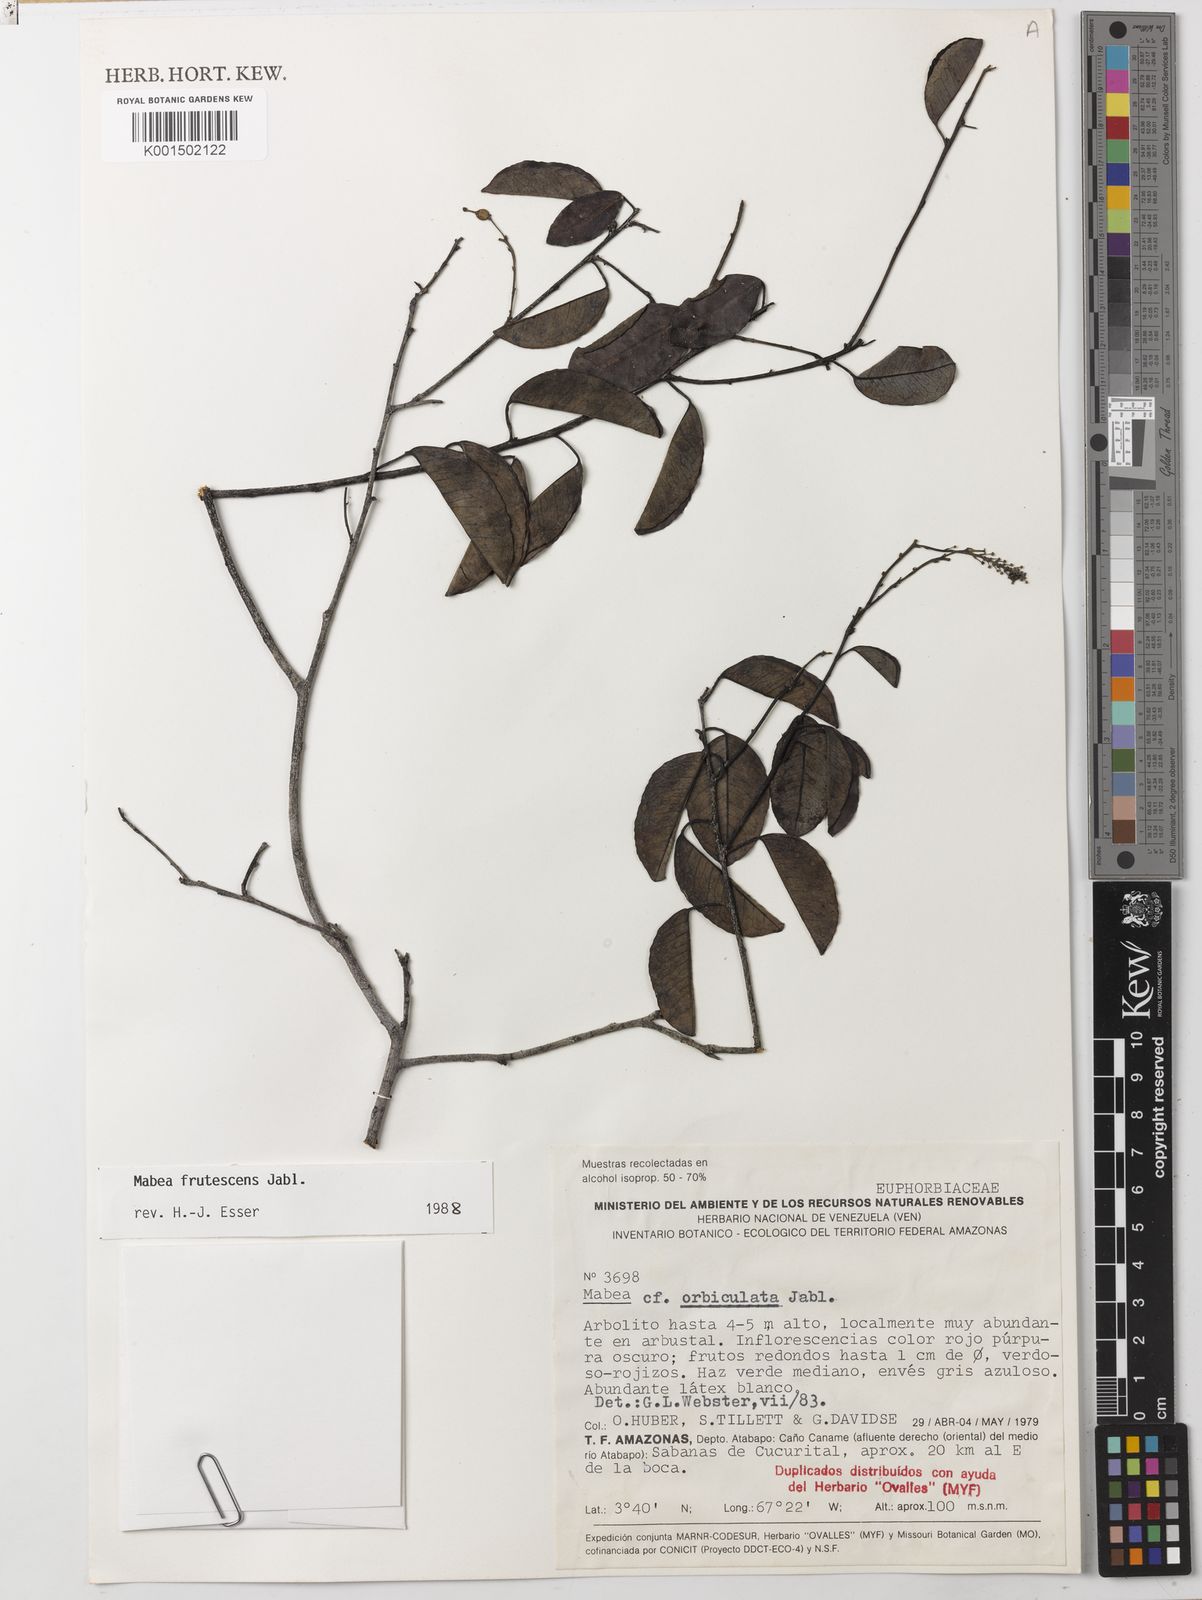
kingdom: Plantae
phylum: Tracheophyta
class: Magnoliopsida
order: Malpighiales
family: Euphorbiaceae
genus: Mabea
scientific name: Mabea frutescens
